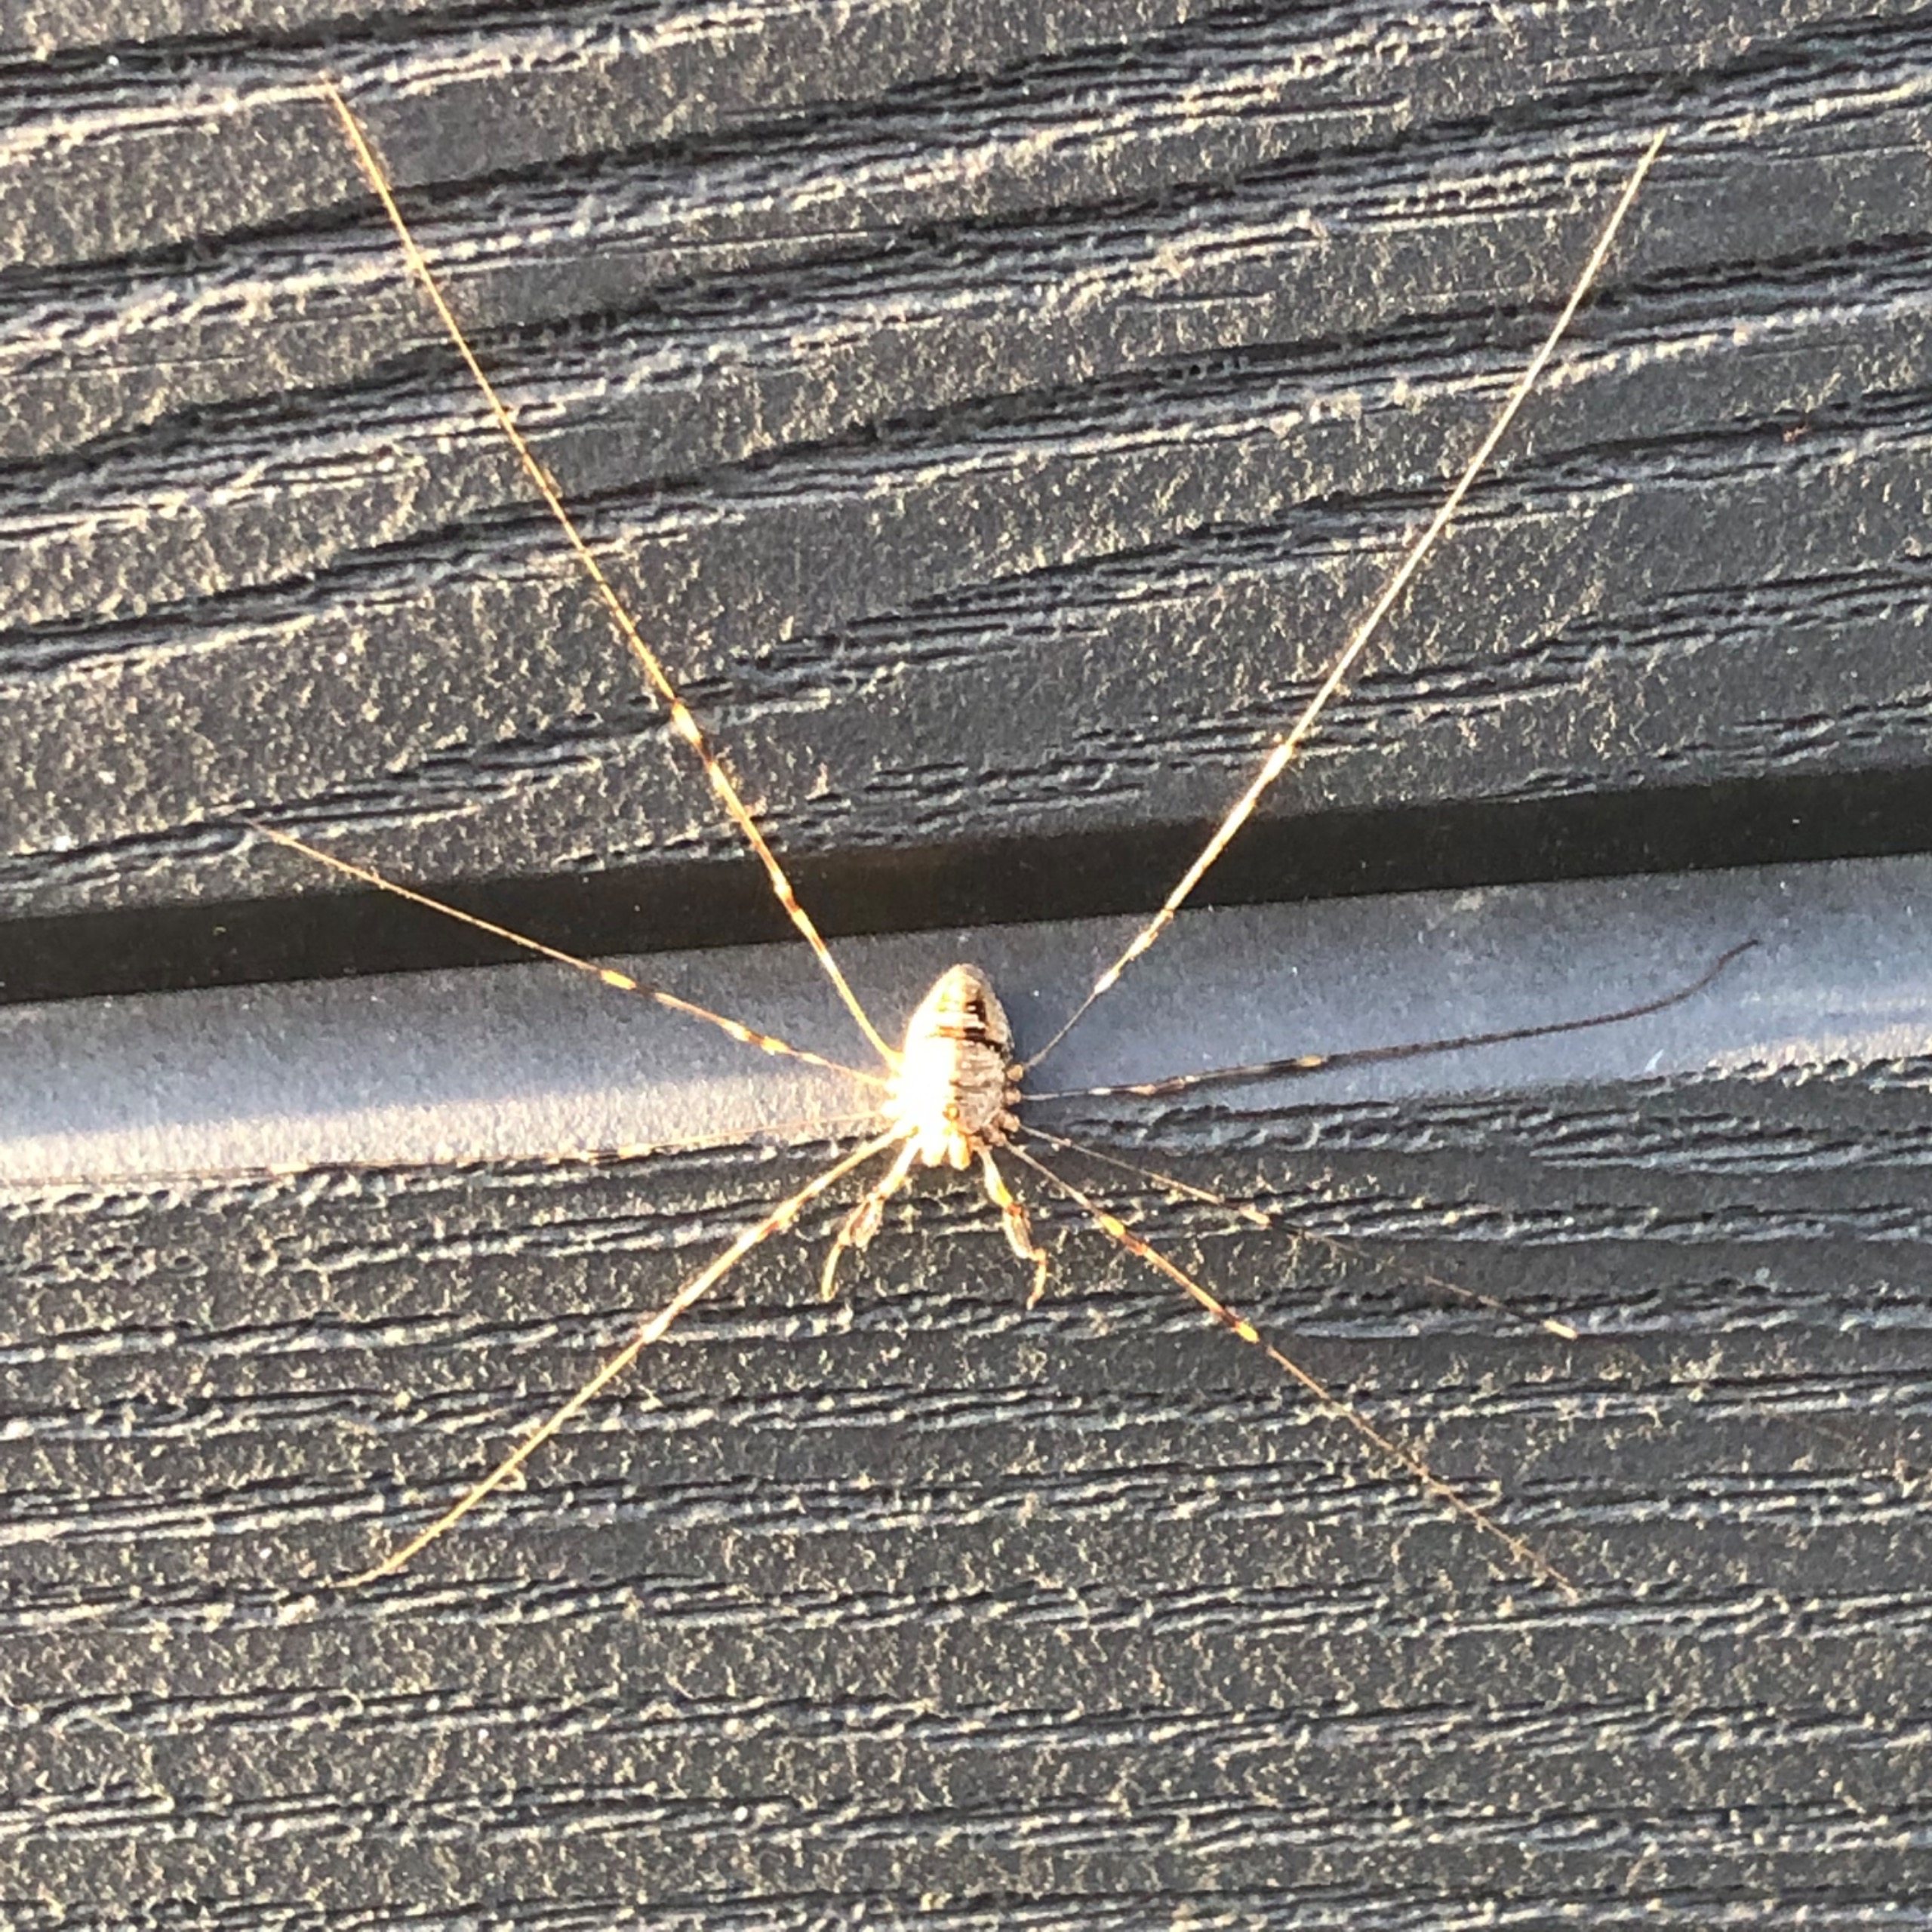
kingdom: Animalia
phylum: Arthropoda
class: Arachnida
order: Opiliones
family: Phalangiidae
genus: Dicranopalpus
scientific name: Dicranopalpus ramosus
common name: Gaffelmejer
